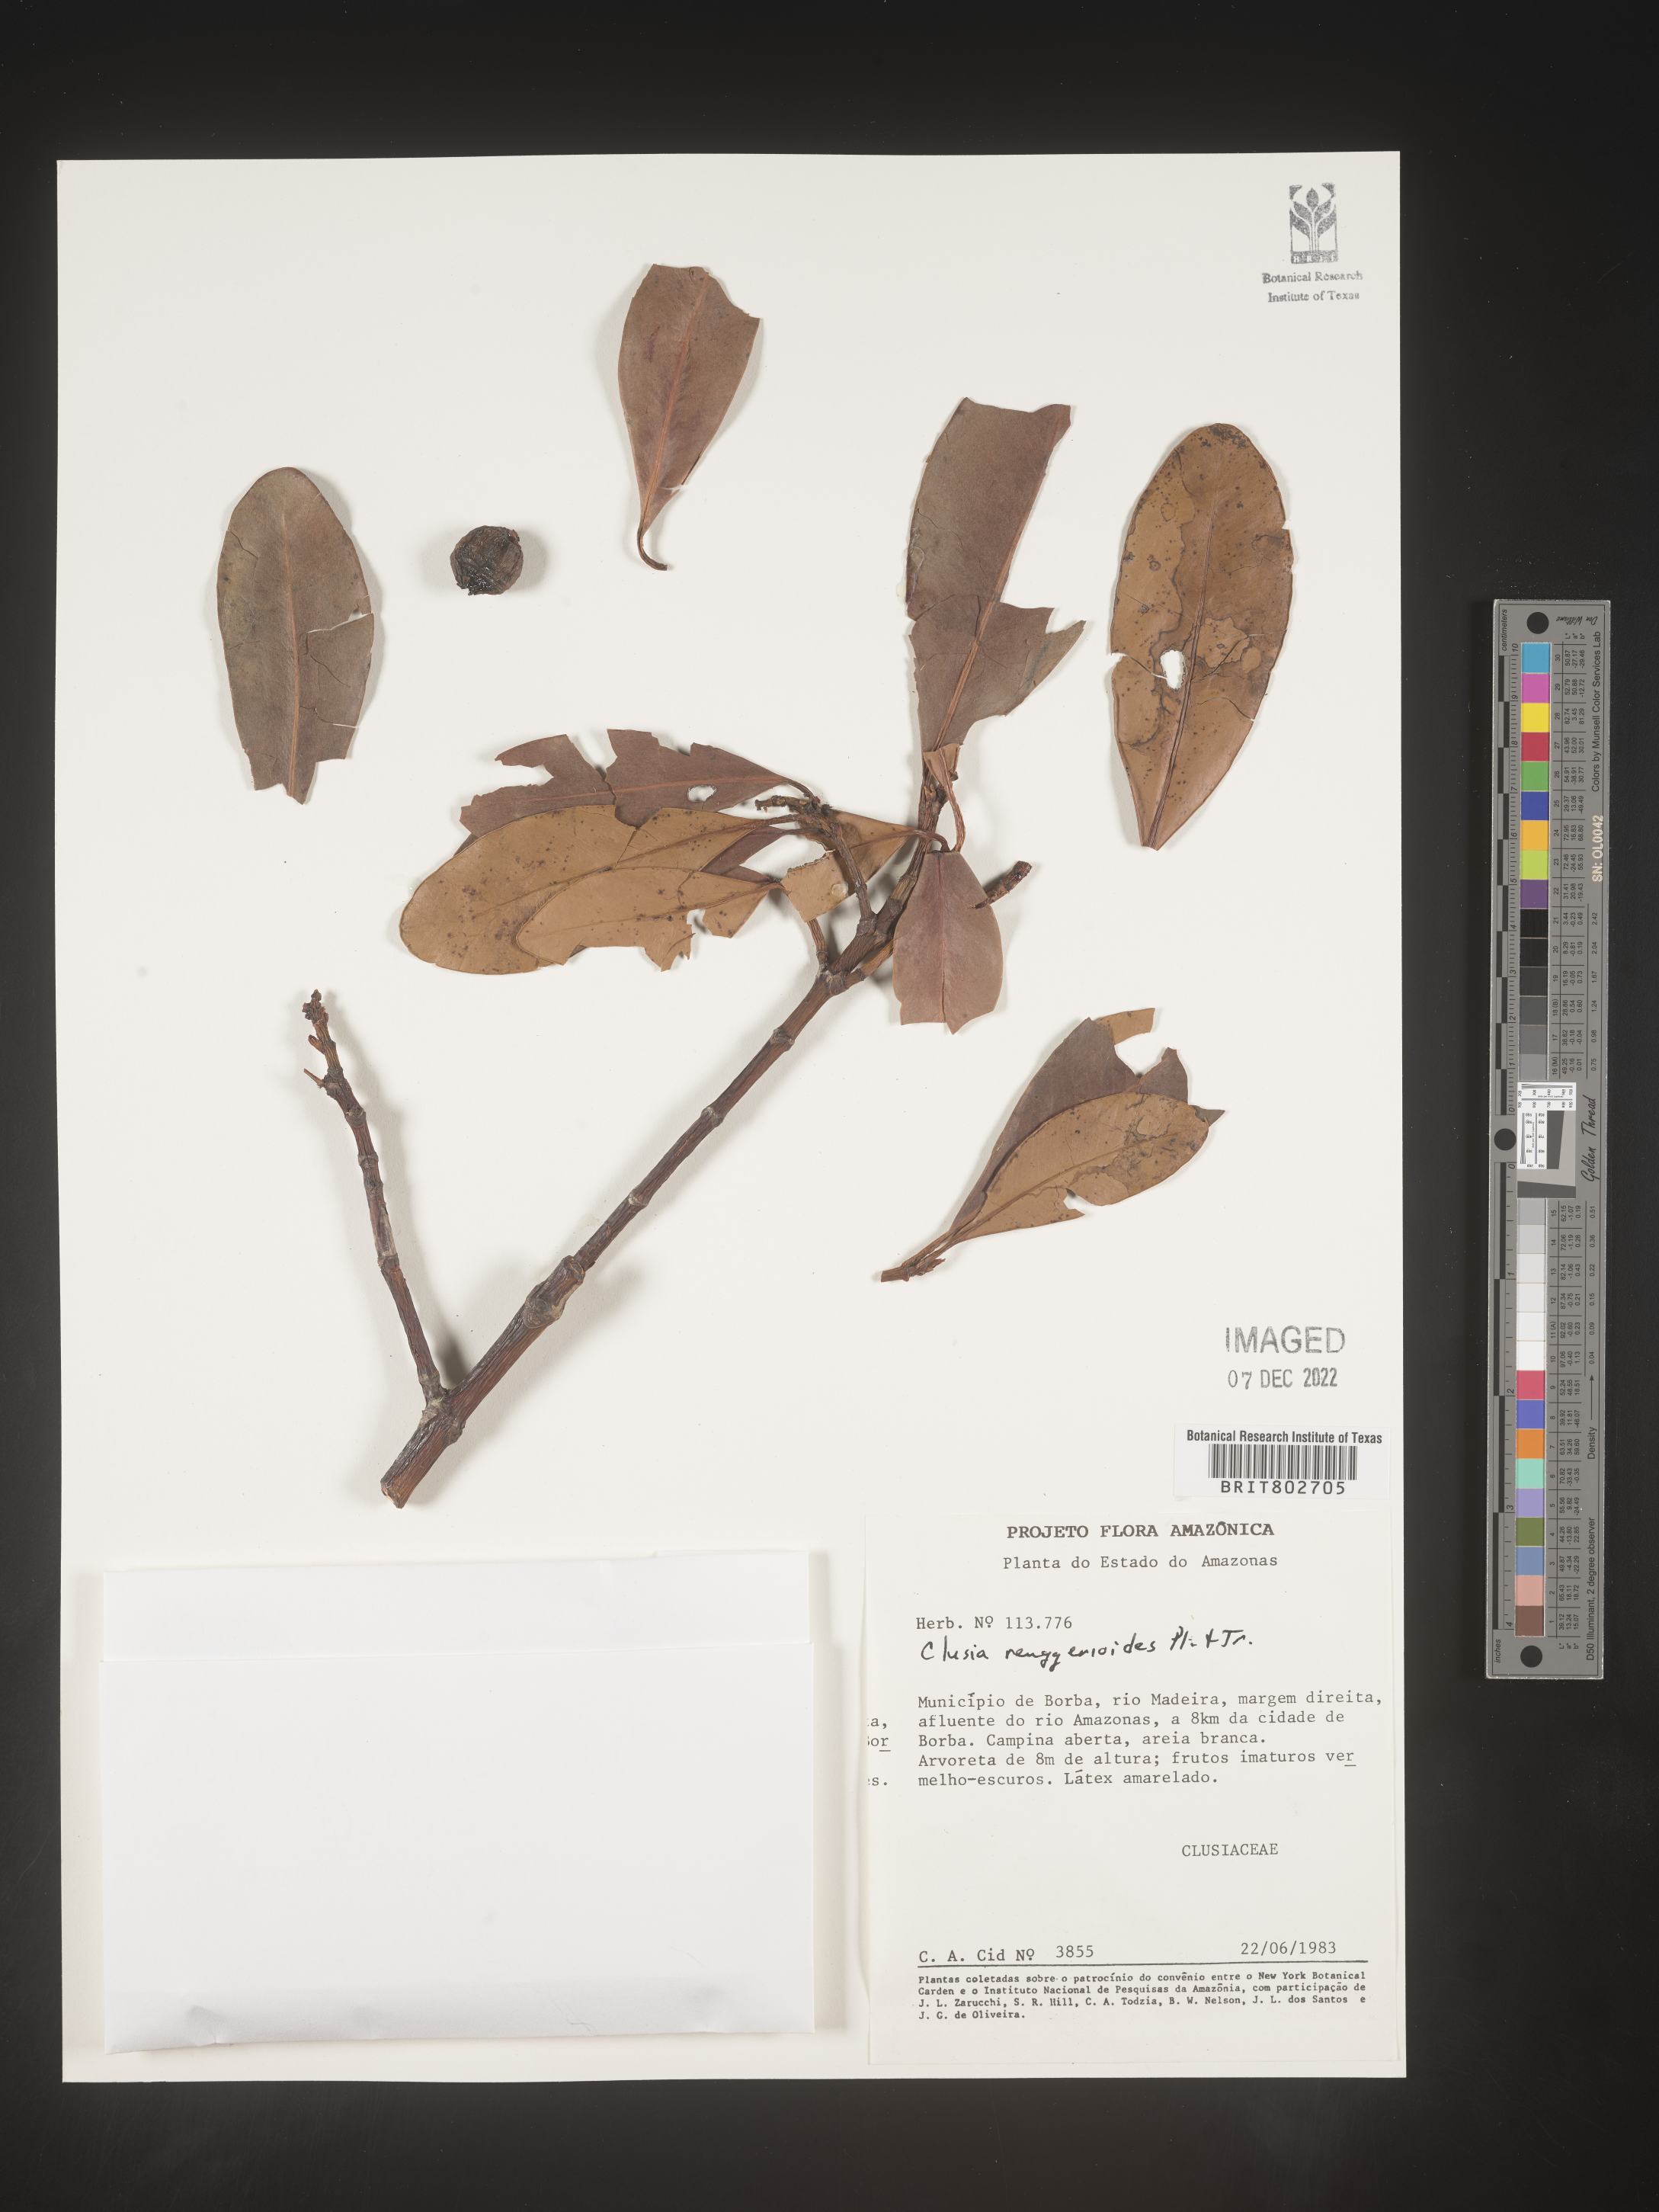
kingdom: Plantae
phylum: Tracheophyta
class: Magnoliopsida
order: Malpighiales
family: Clusiaceae
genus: Clusia
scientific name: Clusia renggerioides
